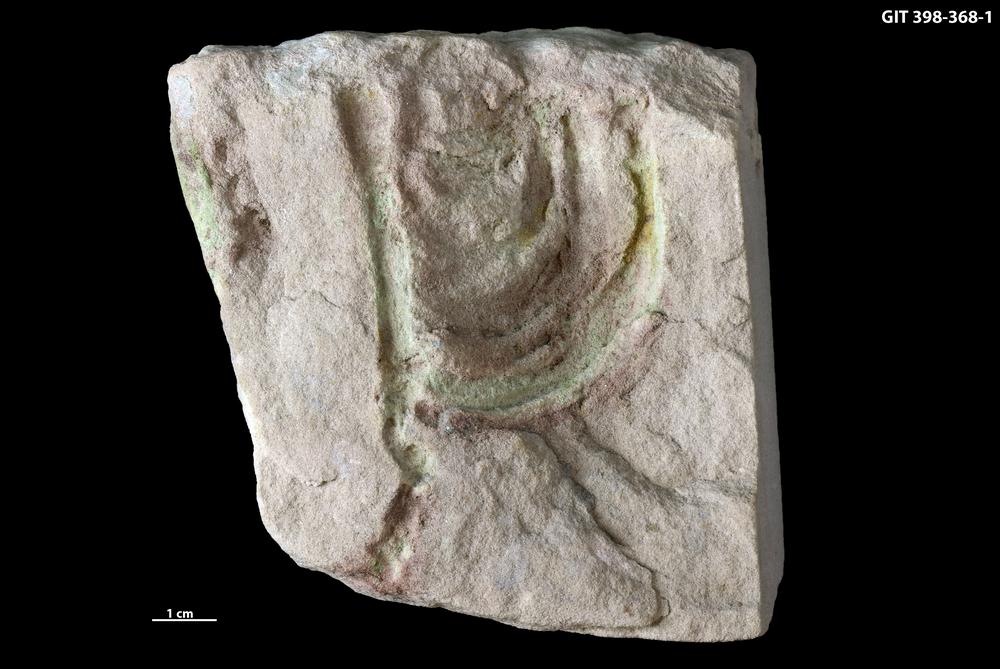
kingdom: Animalia
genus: Diplocraterion
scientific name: Diplocraterion
